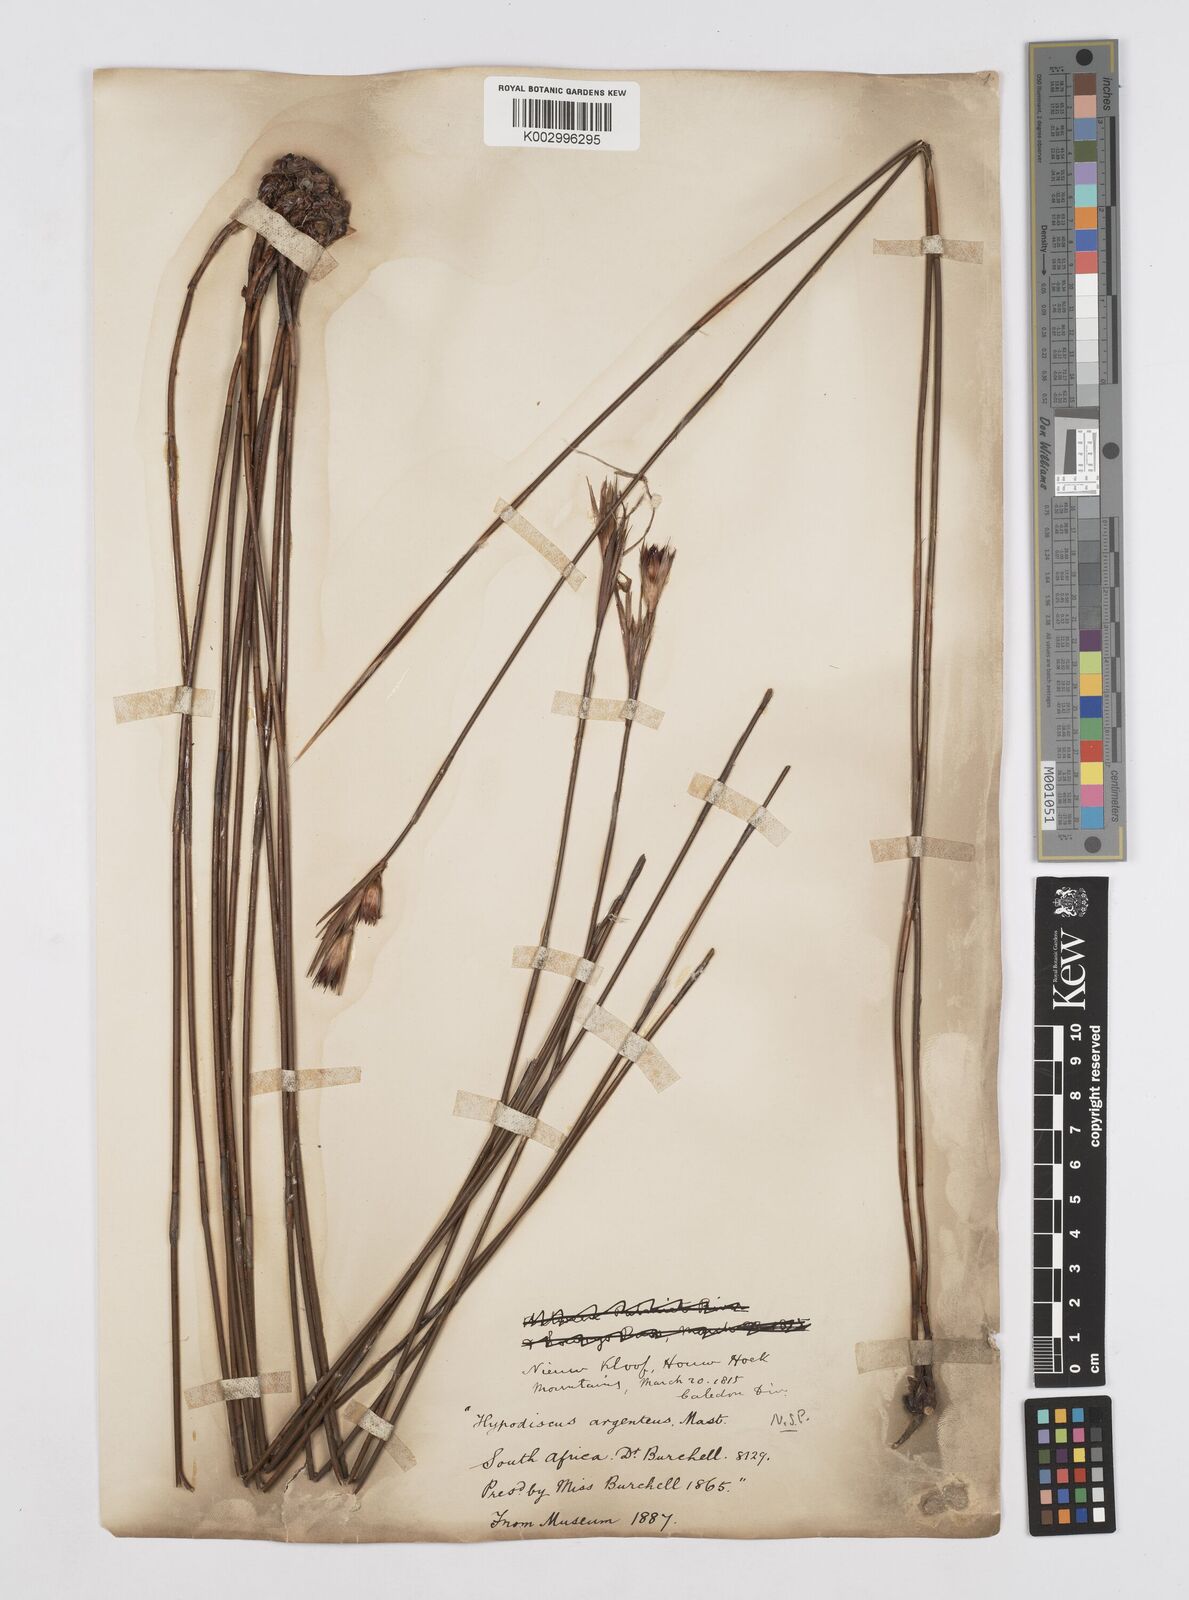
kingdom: Plantae
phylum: Tracheophyta
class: Liliopsida
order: Poales
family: Restionaceae
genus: Hypodiscus
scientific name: Hypodiscus argenteus
